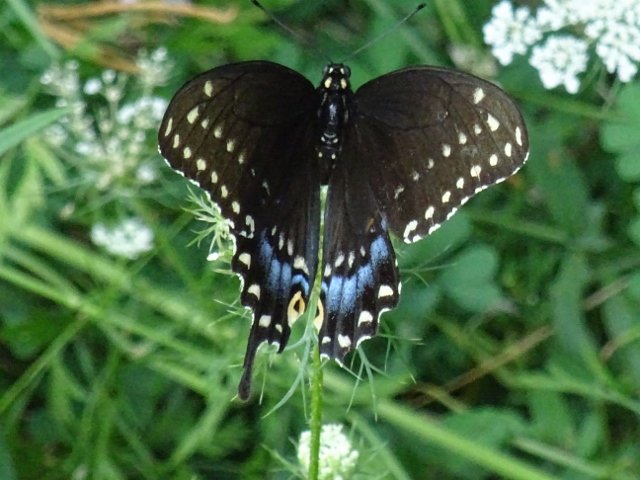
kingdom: Animalia
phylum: Arthropoda
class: Insecta
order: Lepidoptera
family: Papilionidae
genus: Papilio
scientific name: Papilio polyxenes
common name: Black Swallowtail
